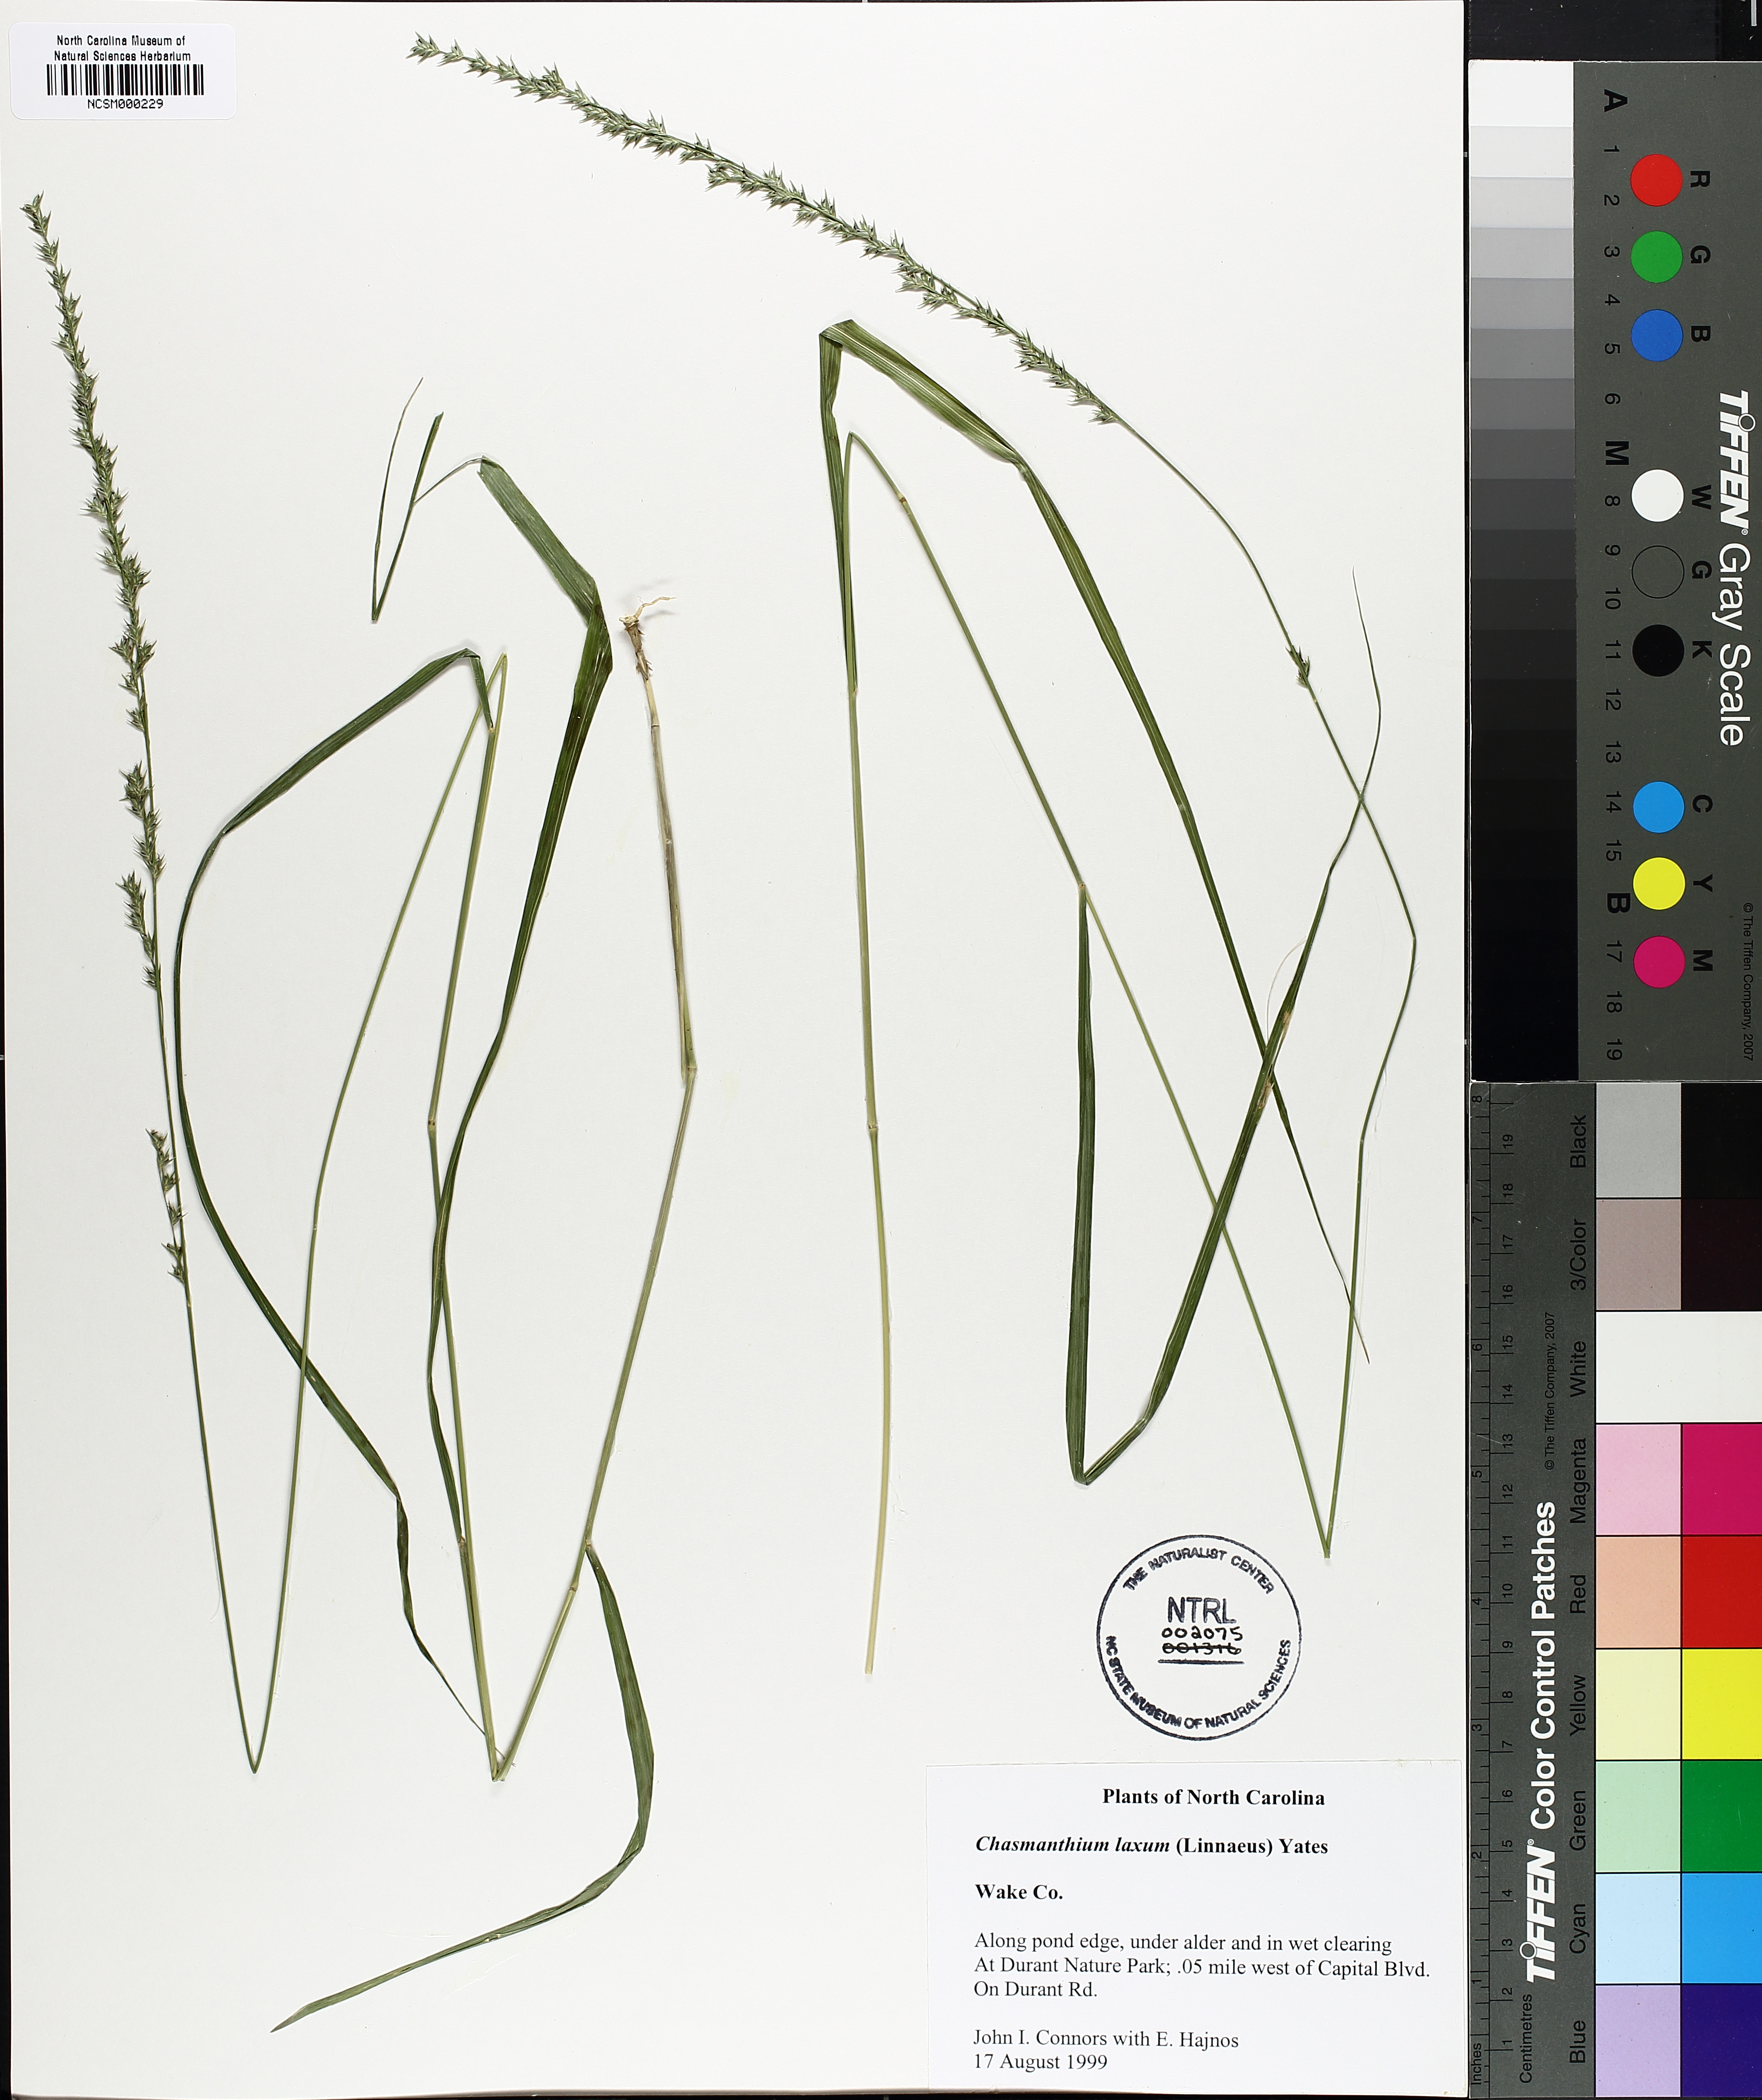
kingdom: Plantae
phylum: Tracheophyta
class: Liliopsida
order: Poales
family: Poaceae
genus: Chasmanthium
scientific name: Chasmanthium laxum
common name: Slender chasmanthium
